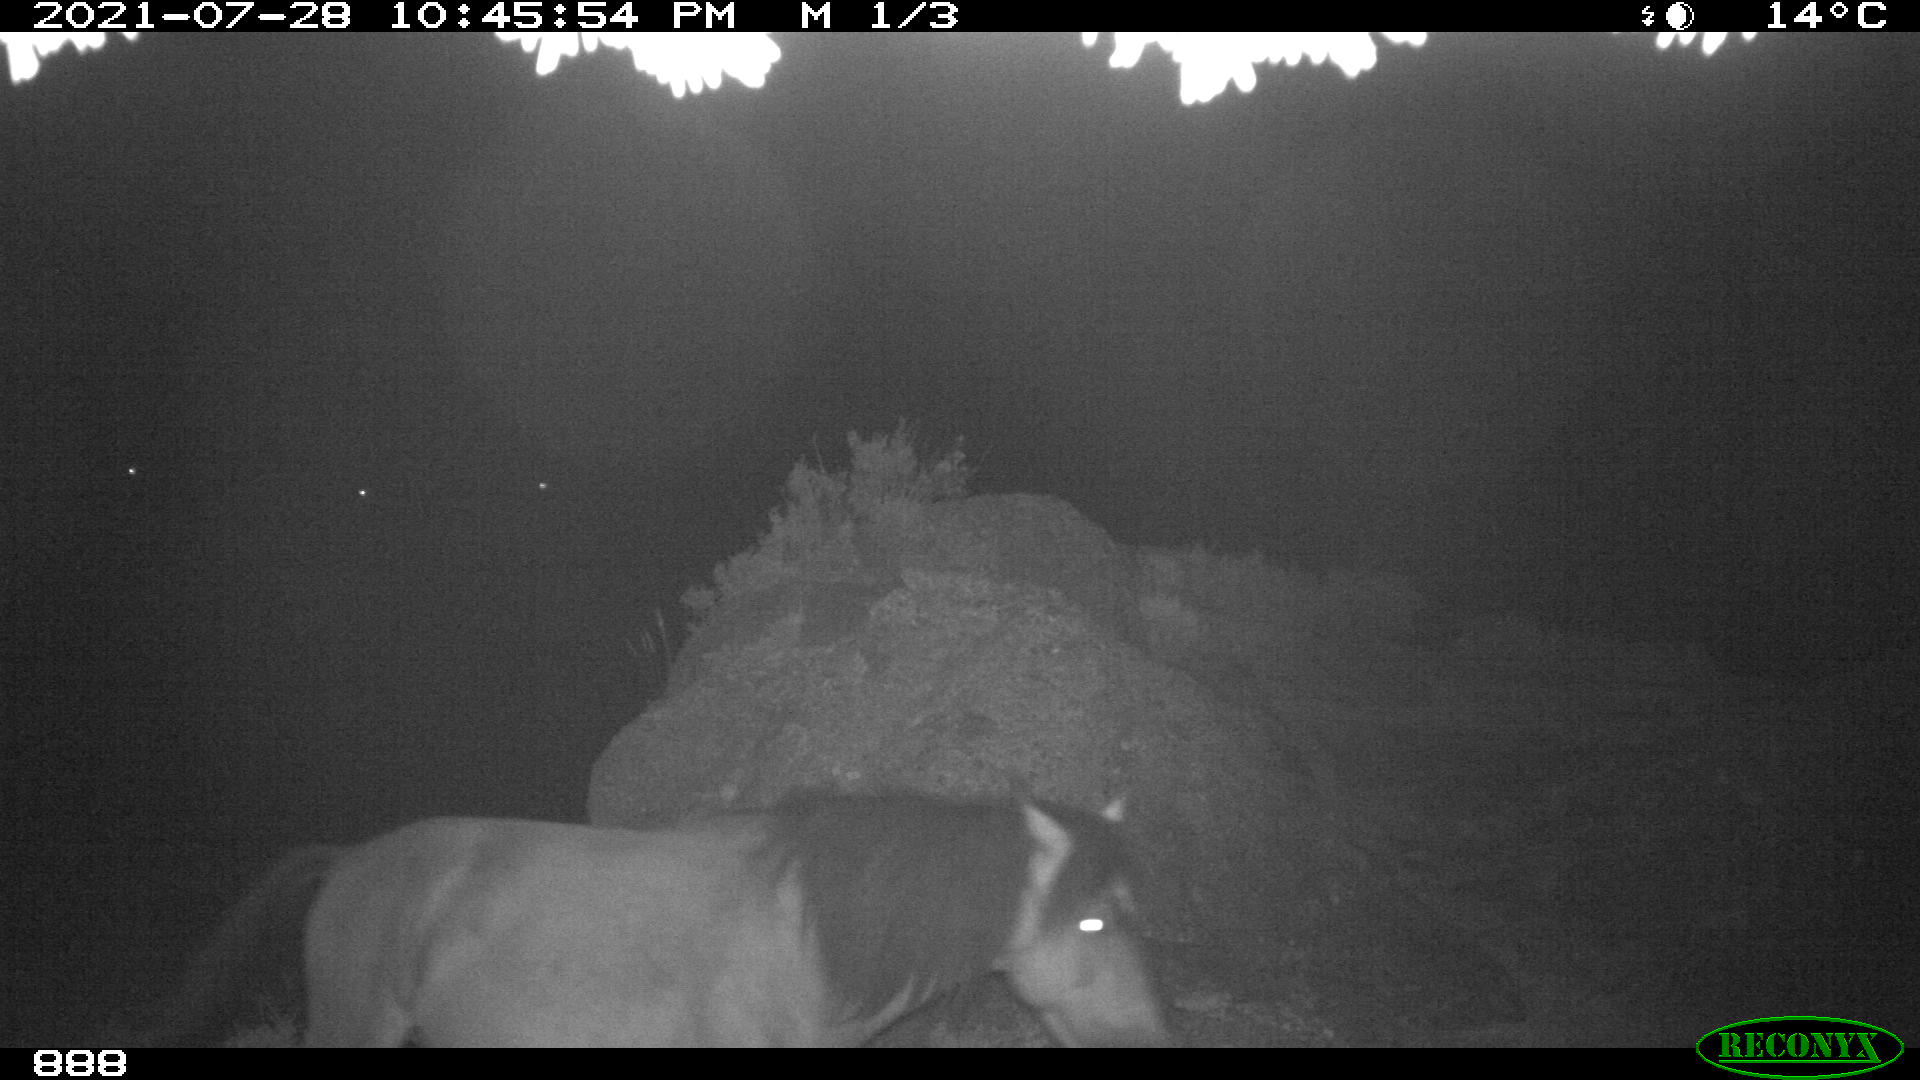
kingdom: Animalia
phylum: Chordata
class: Mammalia
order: Perissodactyla
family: Equidae
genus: Equus
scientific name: Equus caballus
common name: Horse
